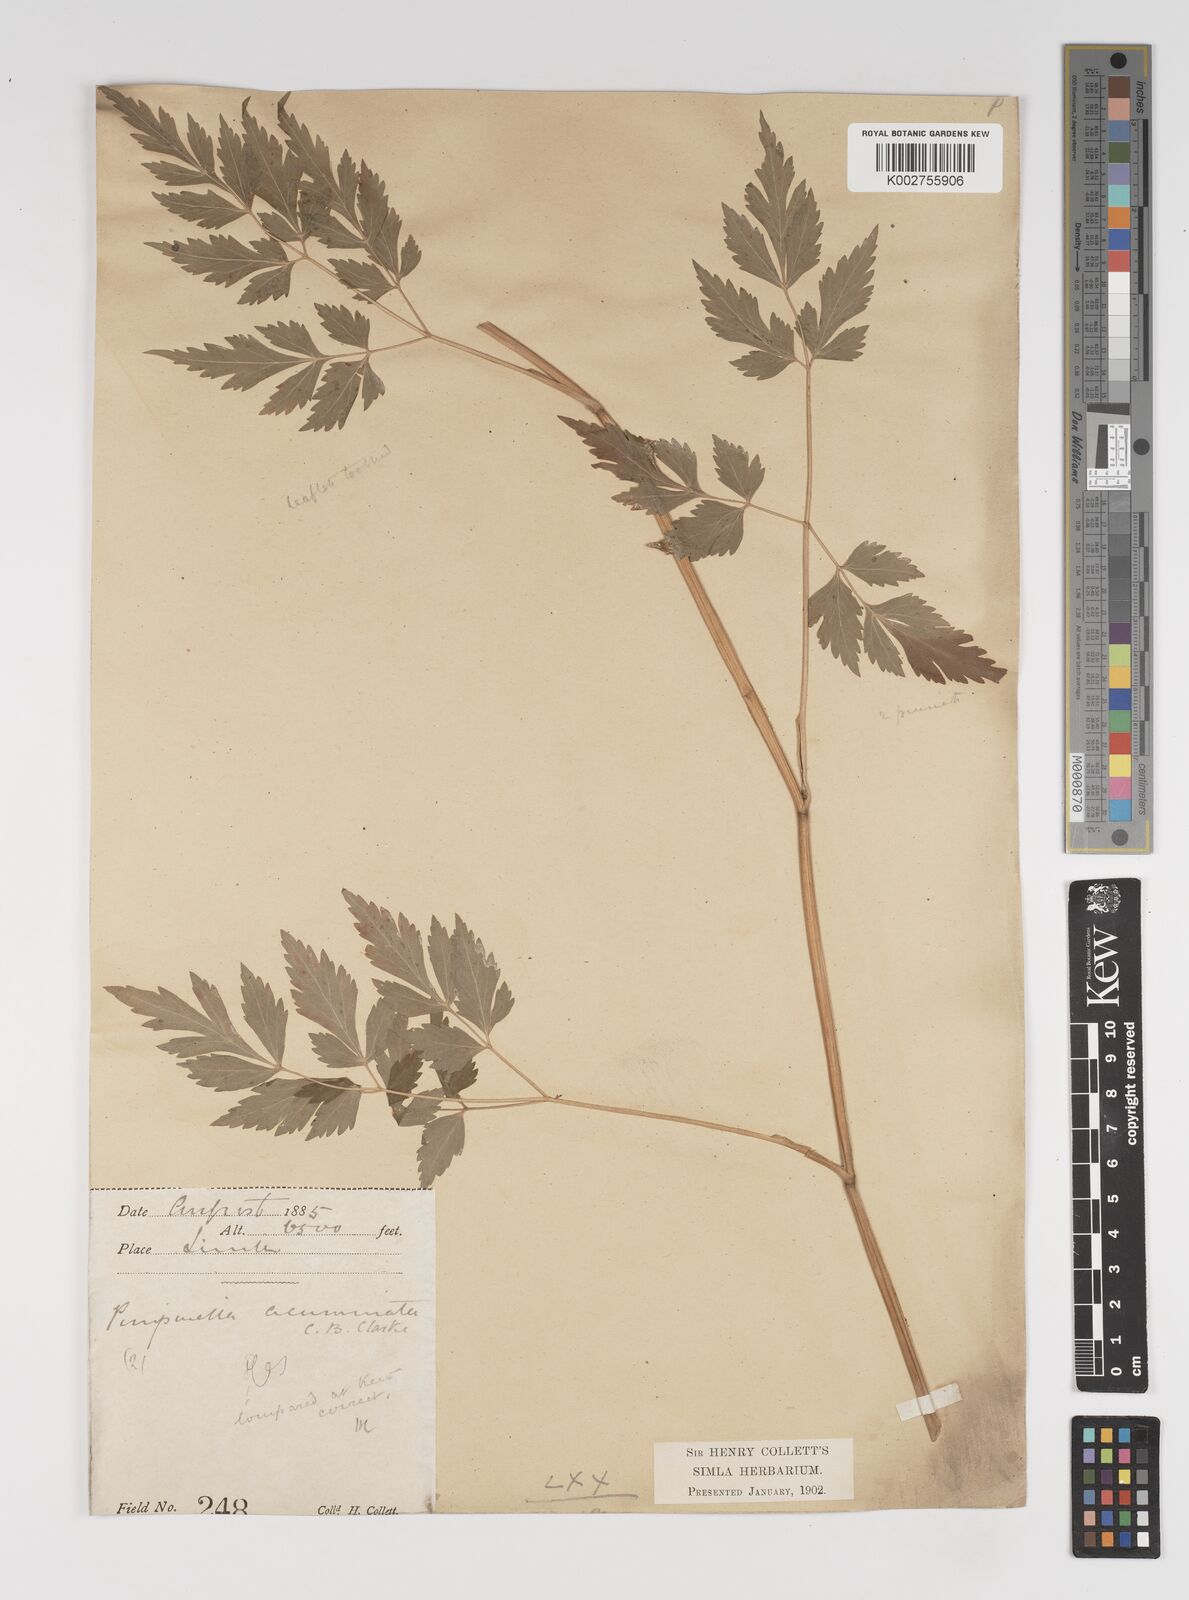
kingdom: Plantae
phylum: Tracheophyta
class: Magnoliopsida
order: Apiales
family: Apiaceae
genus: Pimpinella
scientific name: Pimpinella acuminata
